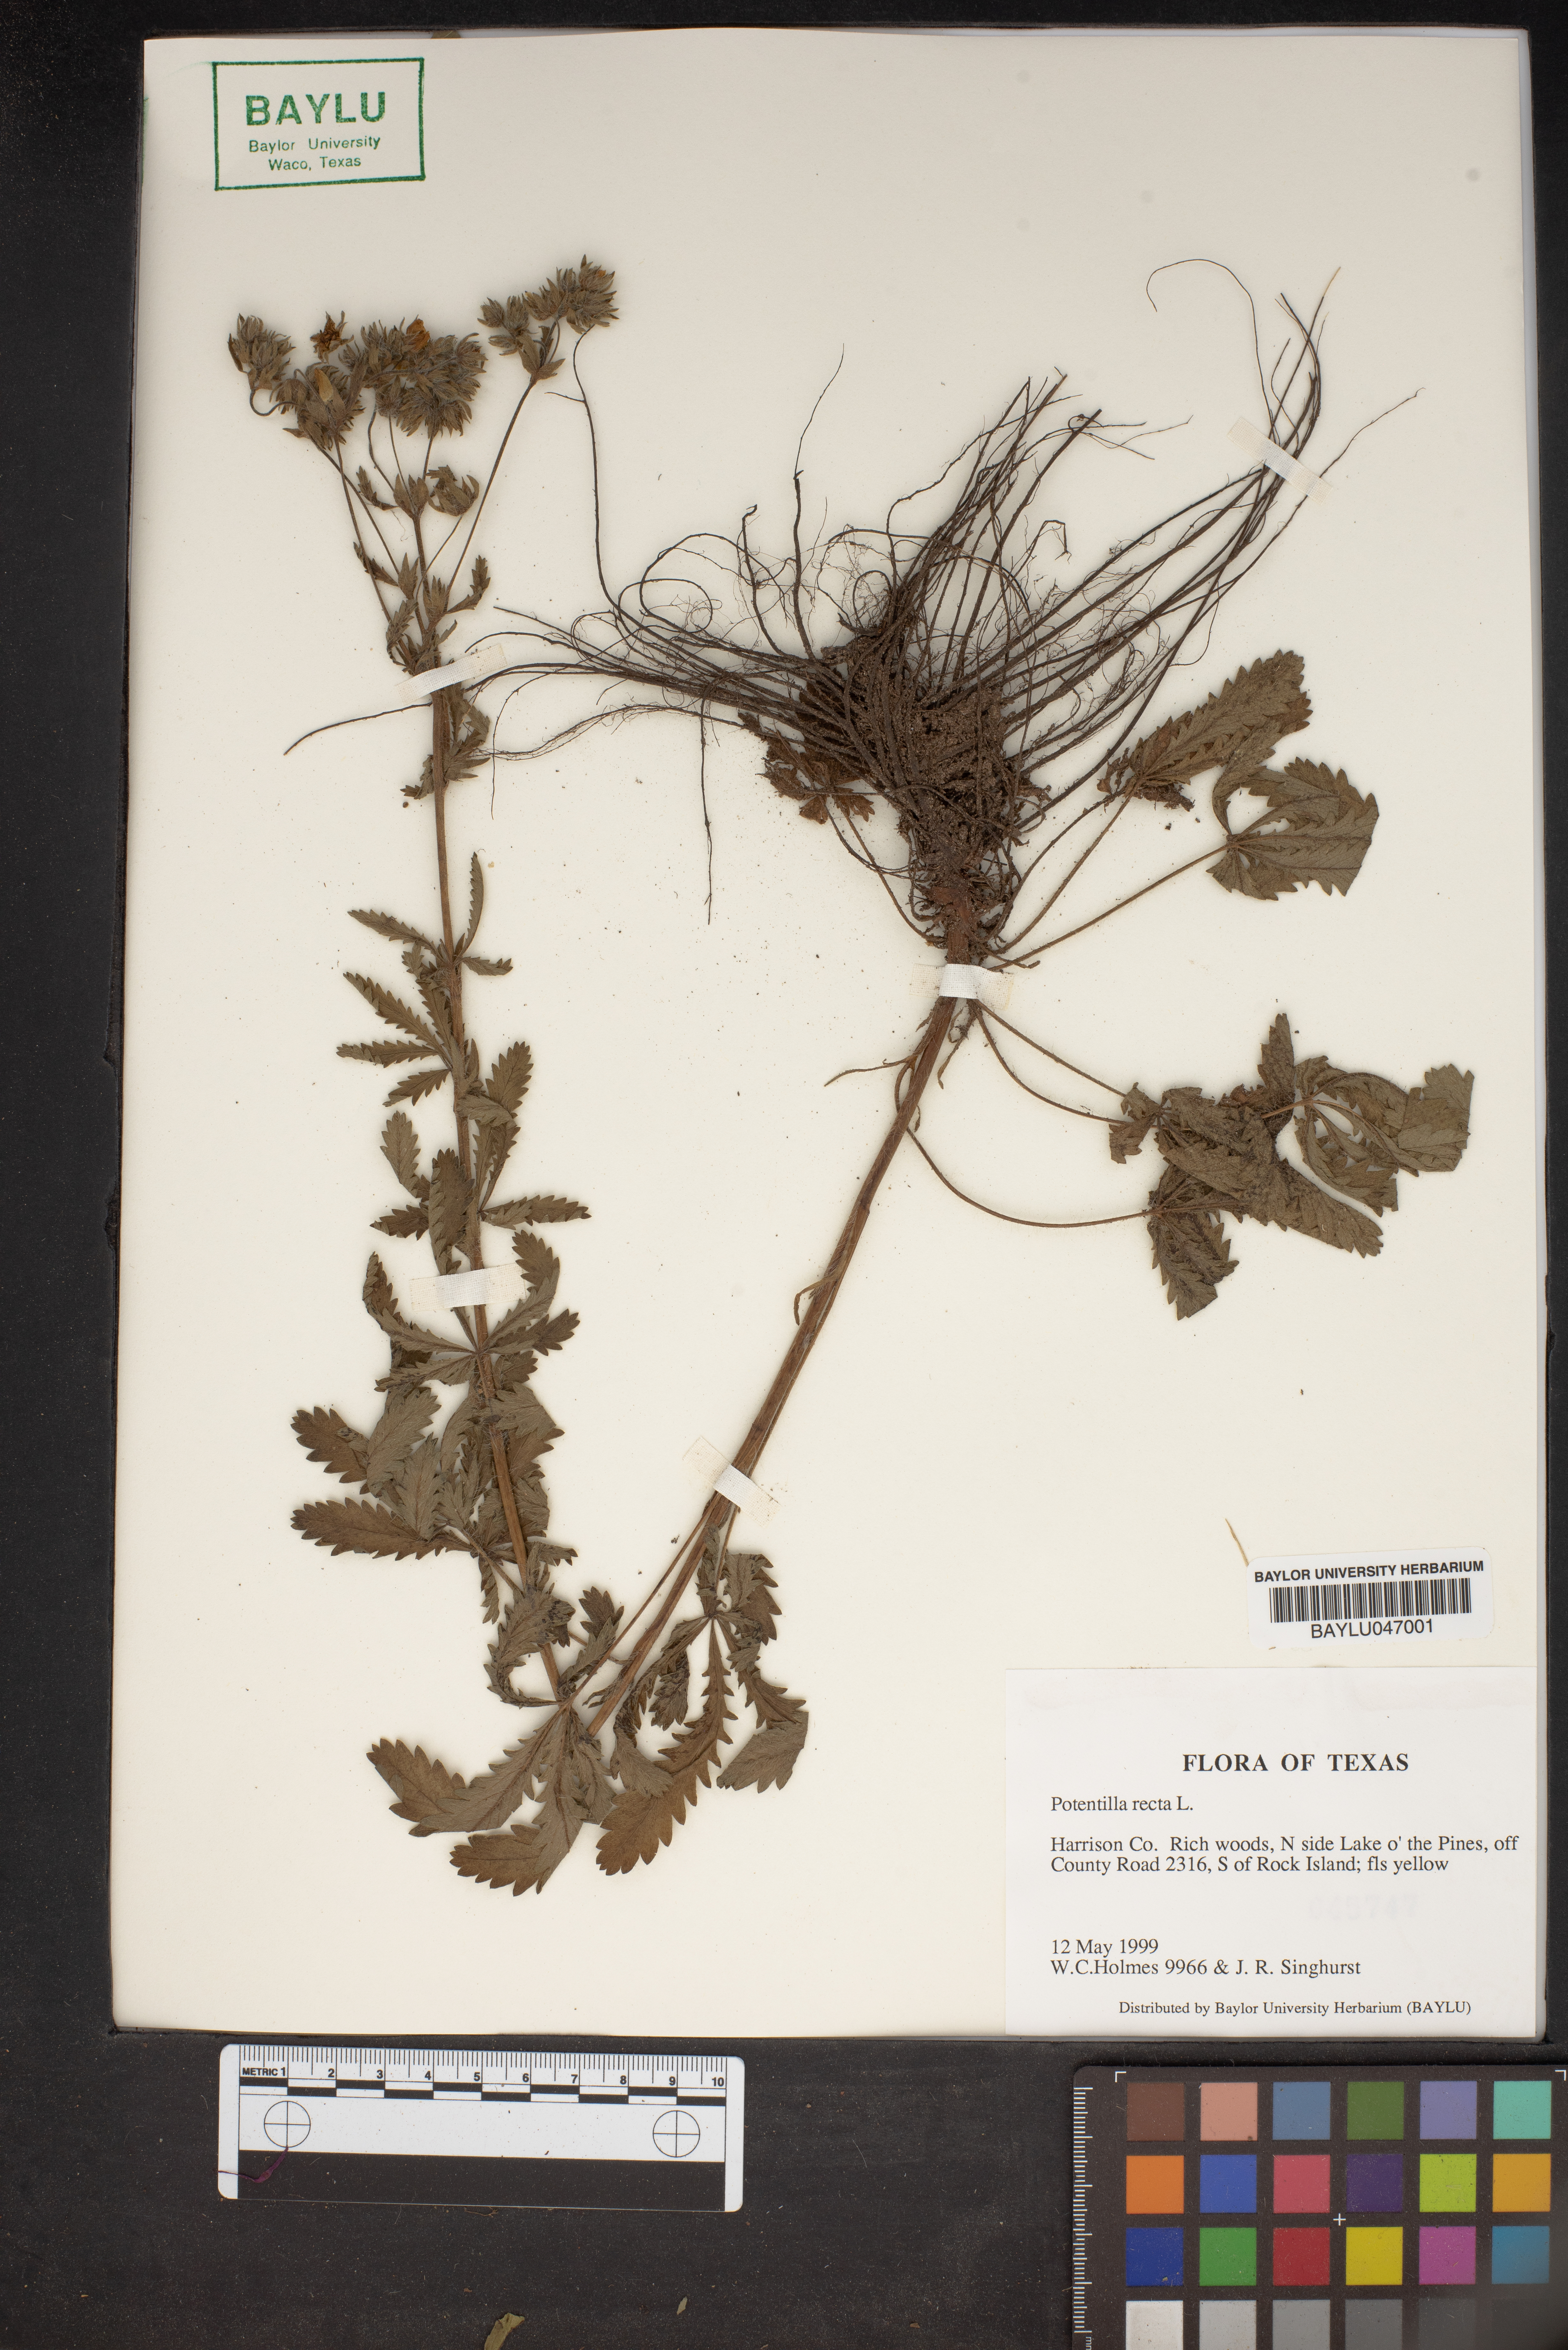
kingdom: Plantae
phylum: Tracheophyta
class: Magnoliopsida
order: Rosales
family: Rosaceae
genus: Potentilla
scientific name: Potentilla recta
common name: Sulphur cinquefoil
